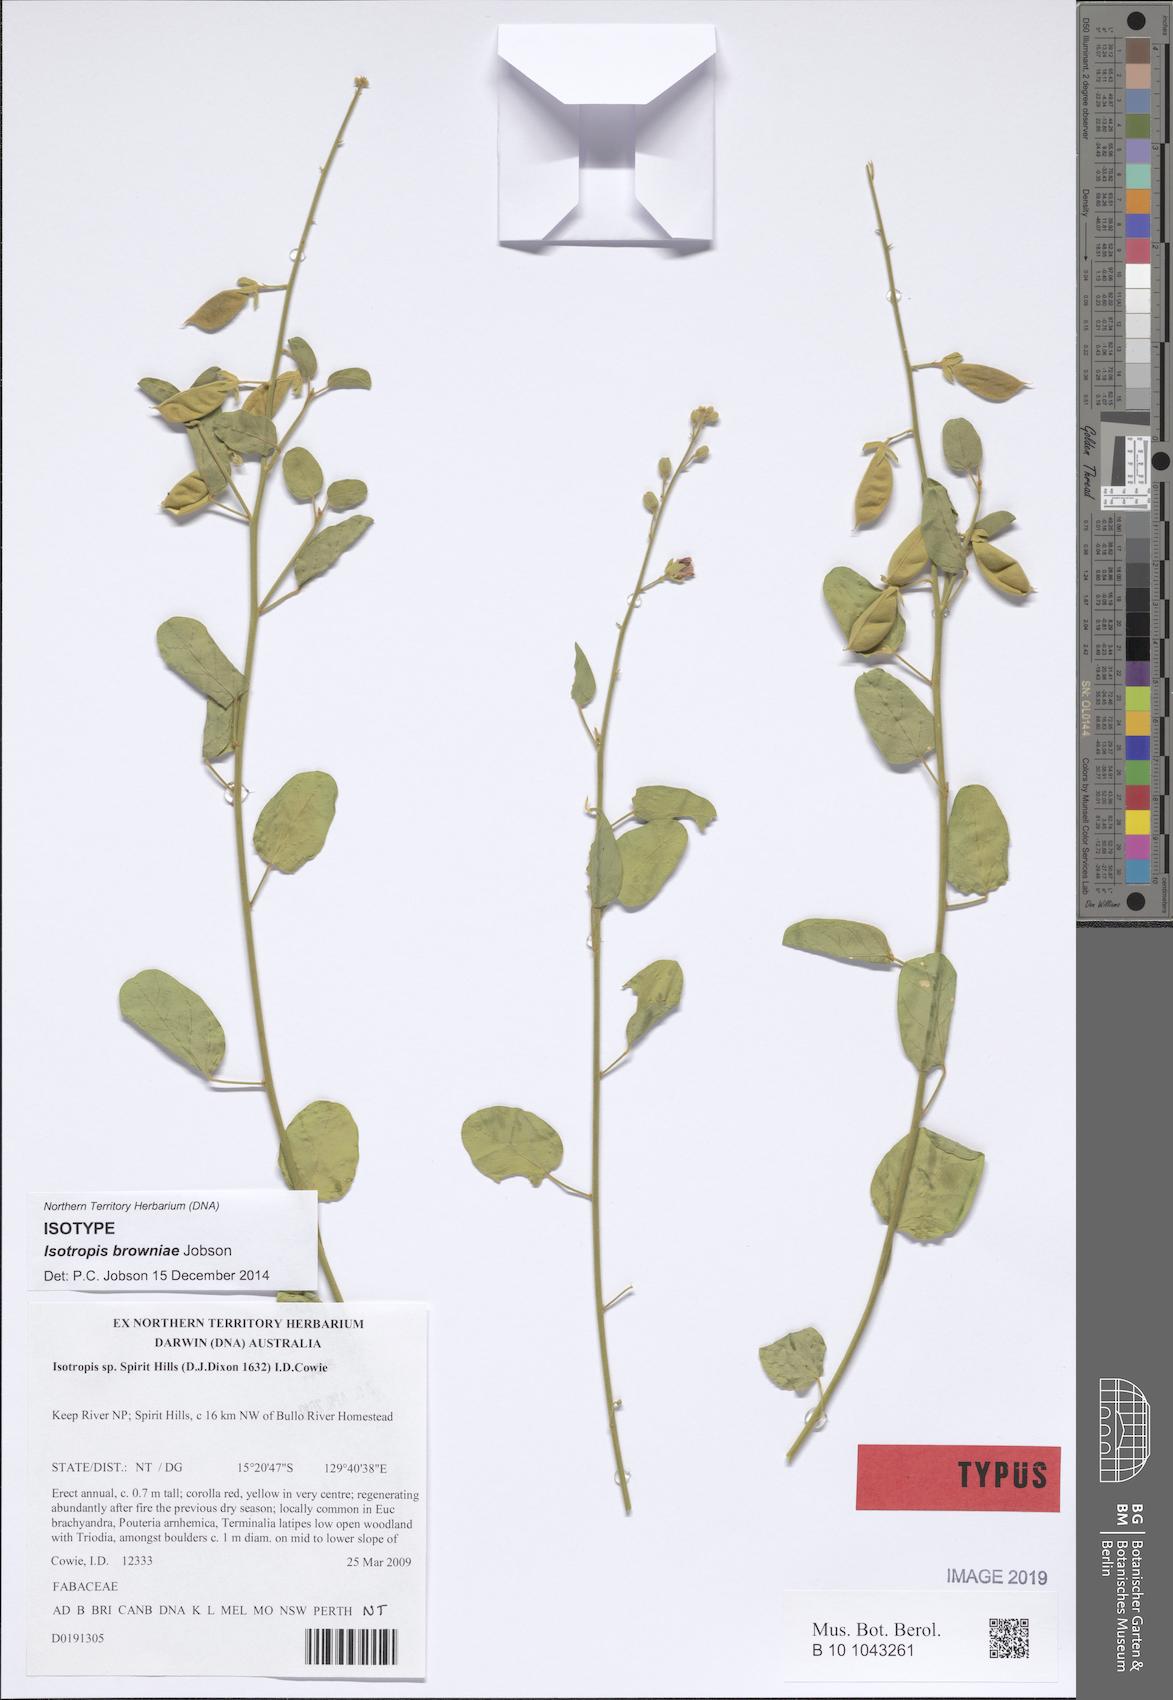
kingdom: Plantae
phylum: Tracheophyta
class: Magnoliopsida
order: Fabales
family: Fabaceae
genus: Isotropis
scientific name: Isotropis browniae
